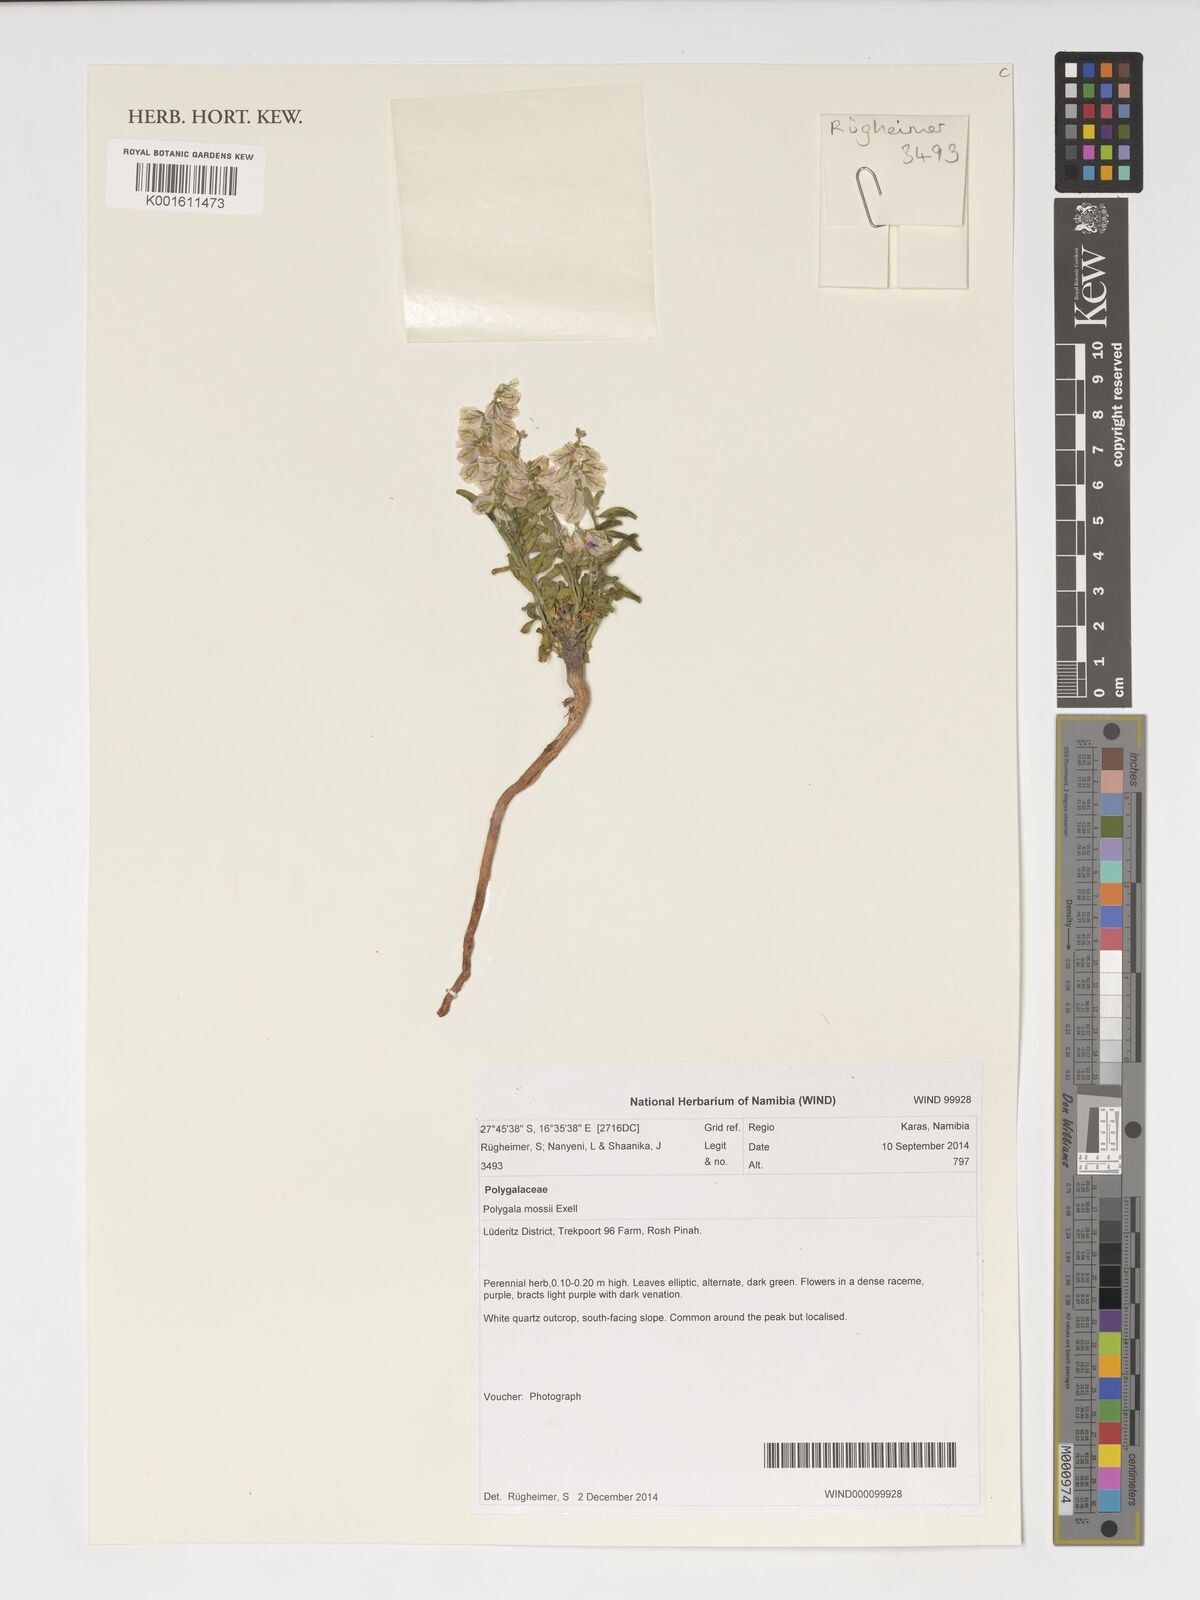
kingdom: Plantae
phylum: Tracheophyta
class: Magnoliopsida
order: Fabales
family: Polygalaceae
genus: Polygala
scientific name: Polygala mossii
